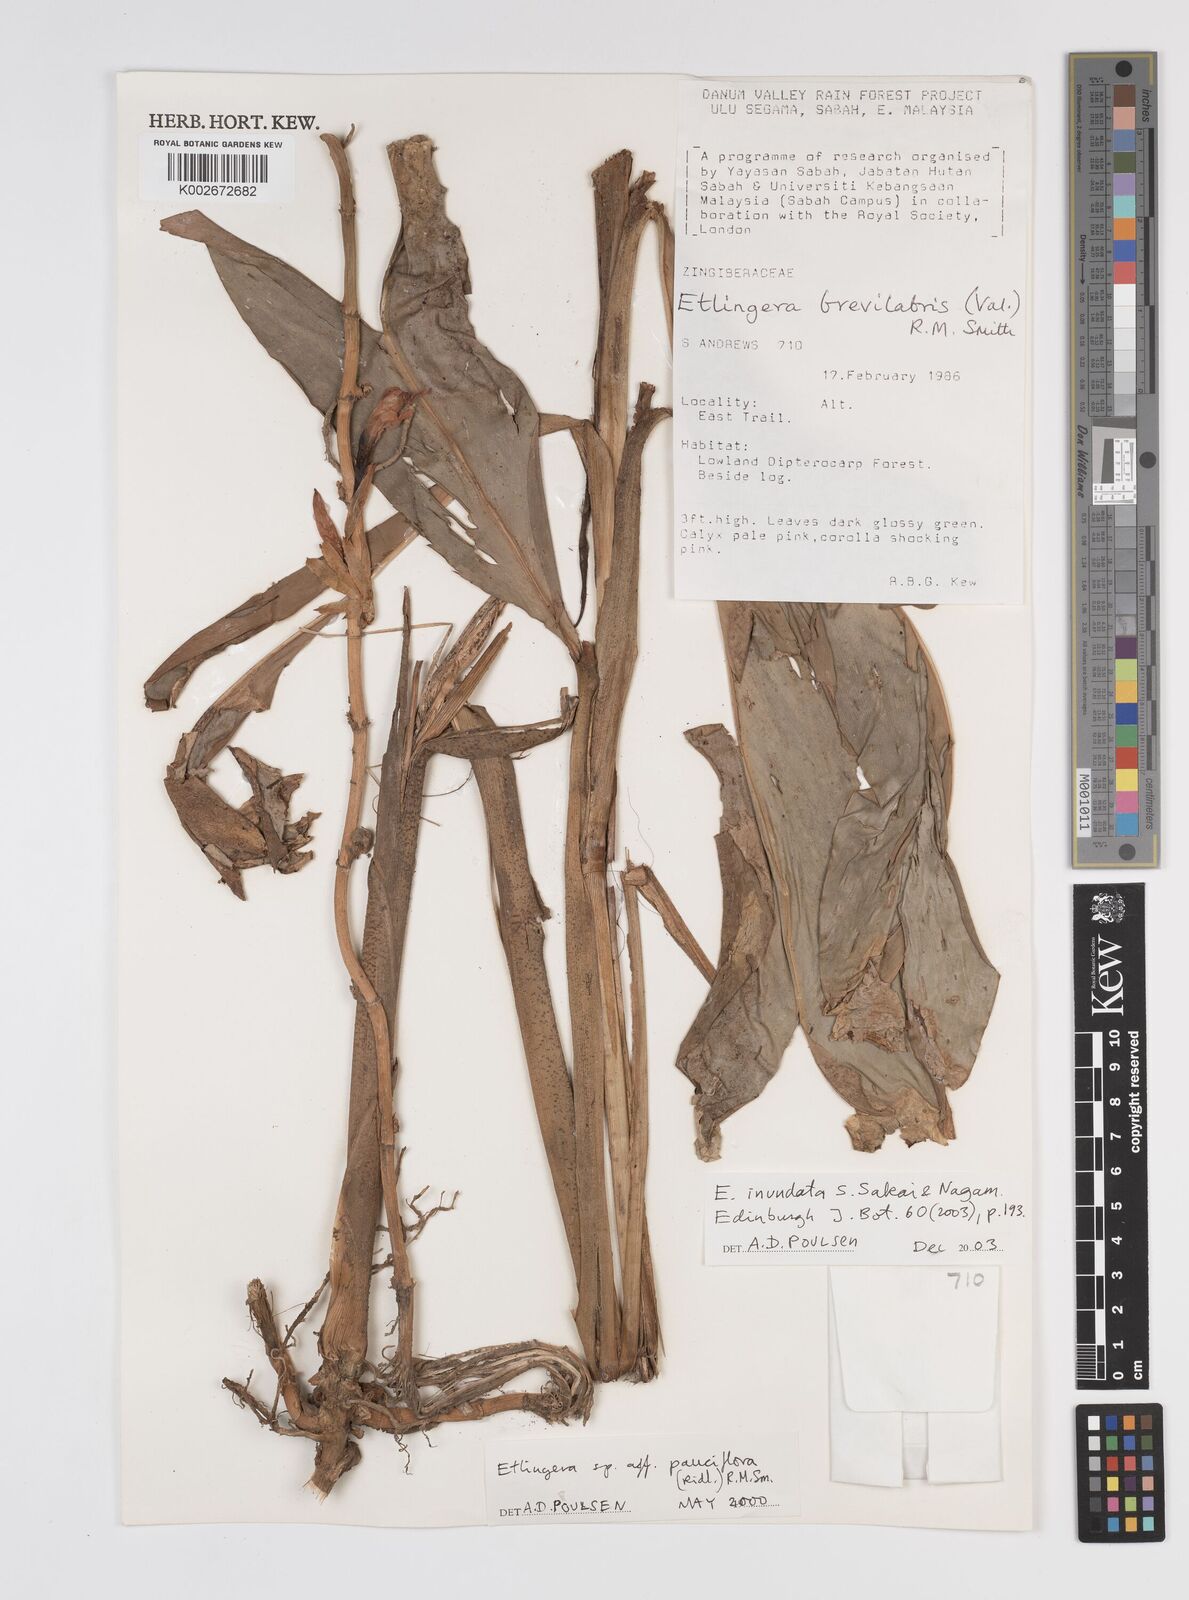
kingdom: Plantae
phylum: Tracheophyta
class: Liliopsida
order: Zingiberales
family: Zingiberaceae
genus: Etlingera
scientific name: Etlingera inundata
